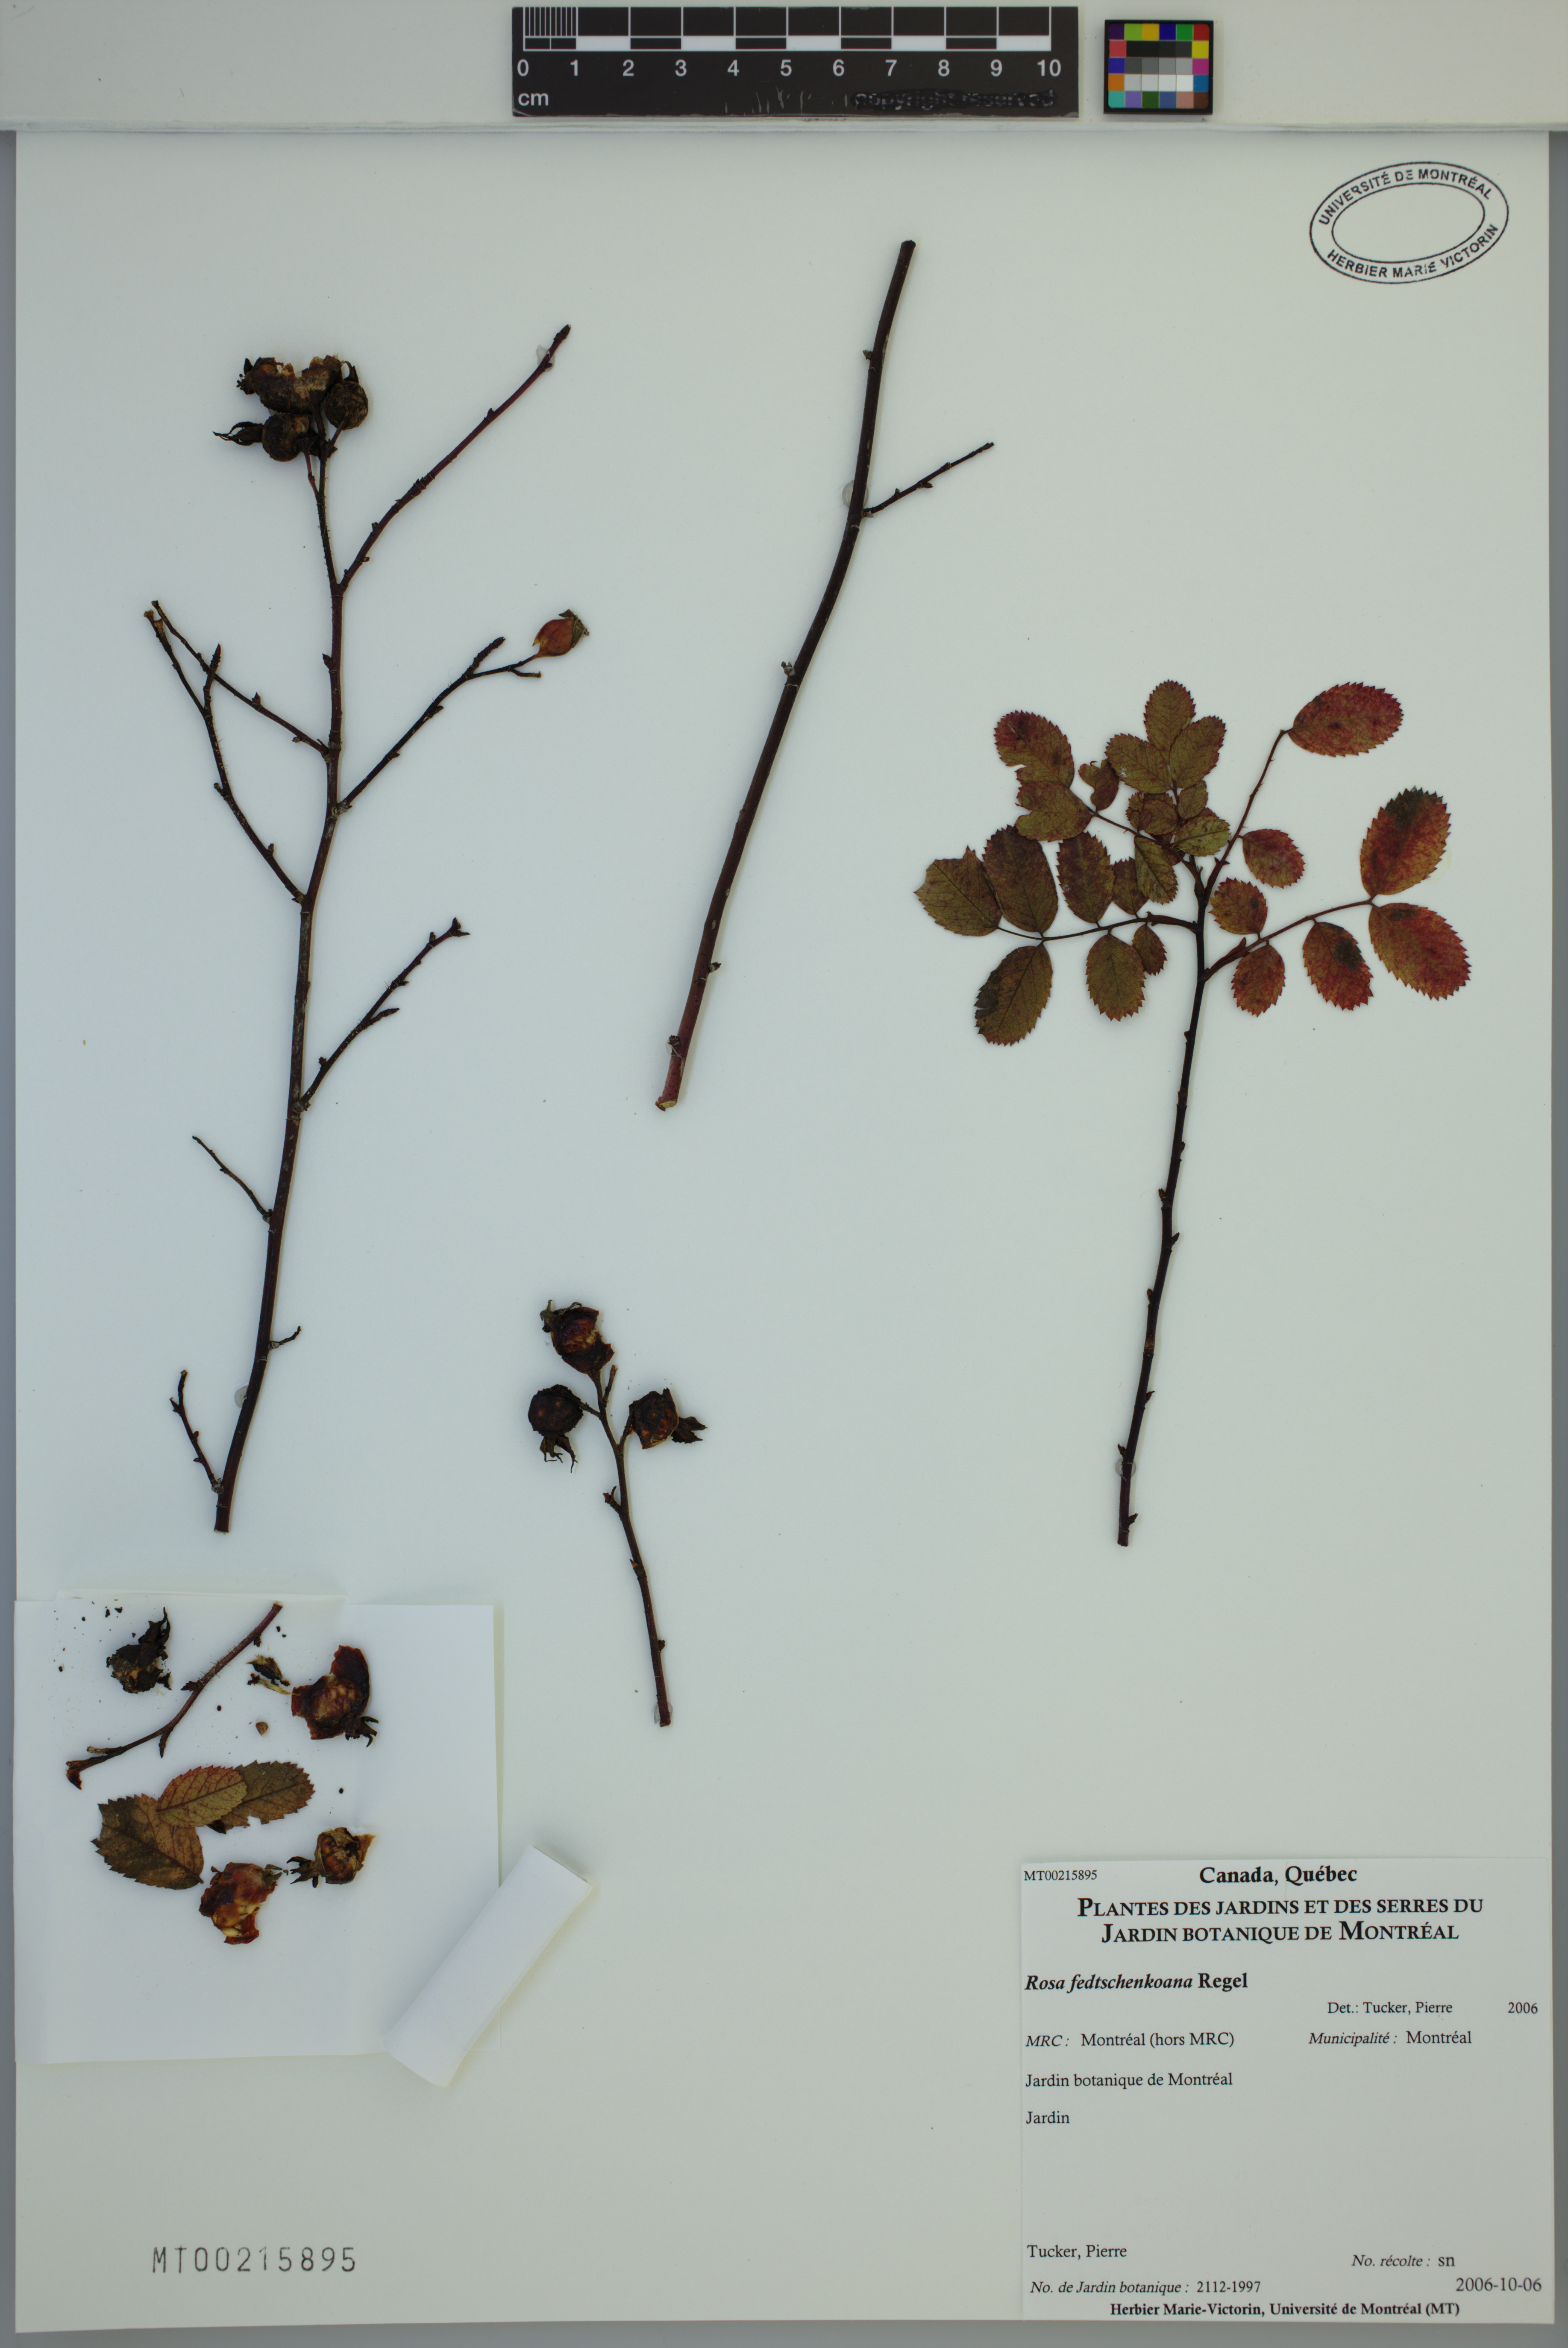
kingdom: Plantae
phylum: Tracheophyta
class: Magnoliopsida
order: Rosales
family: Rosaceae
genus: Rosa
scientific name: Rosa webbiana
